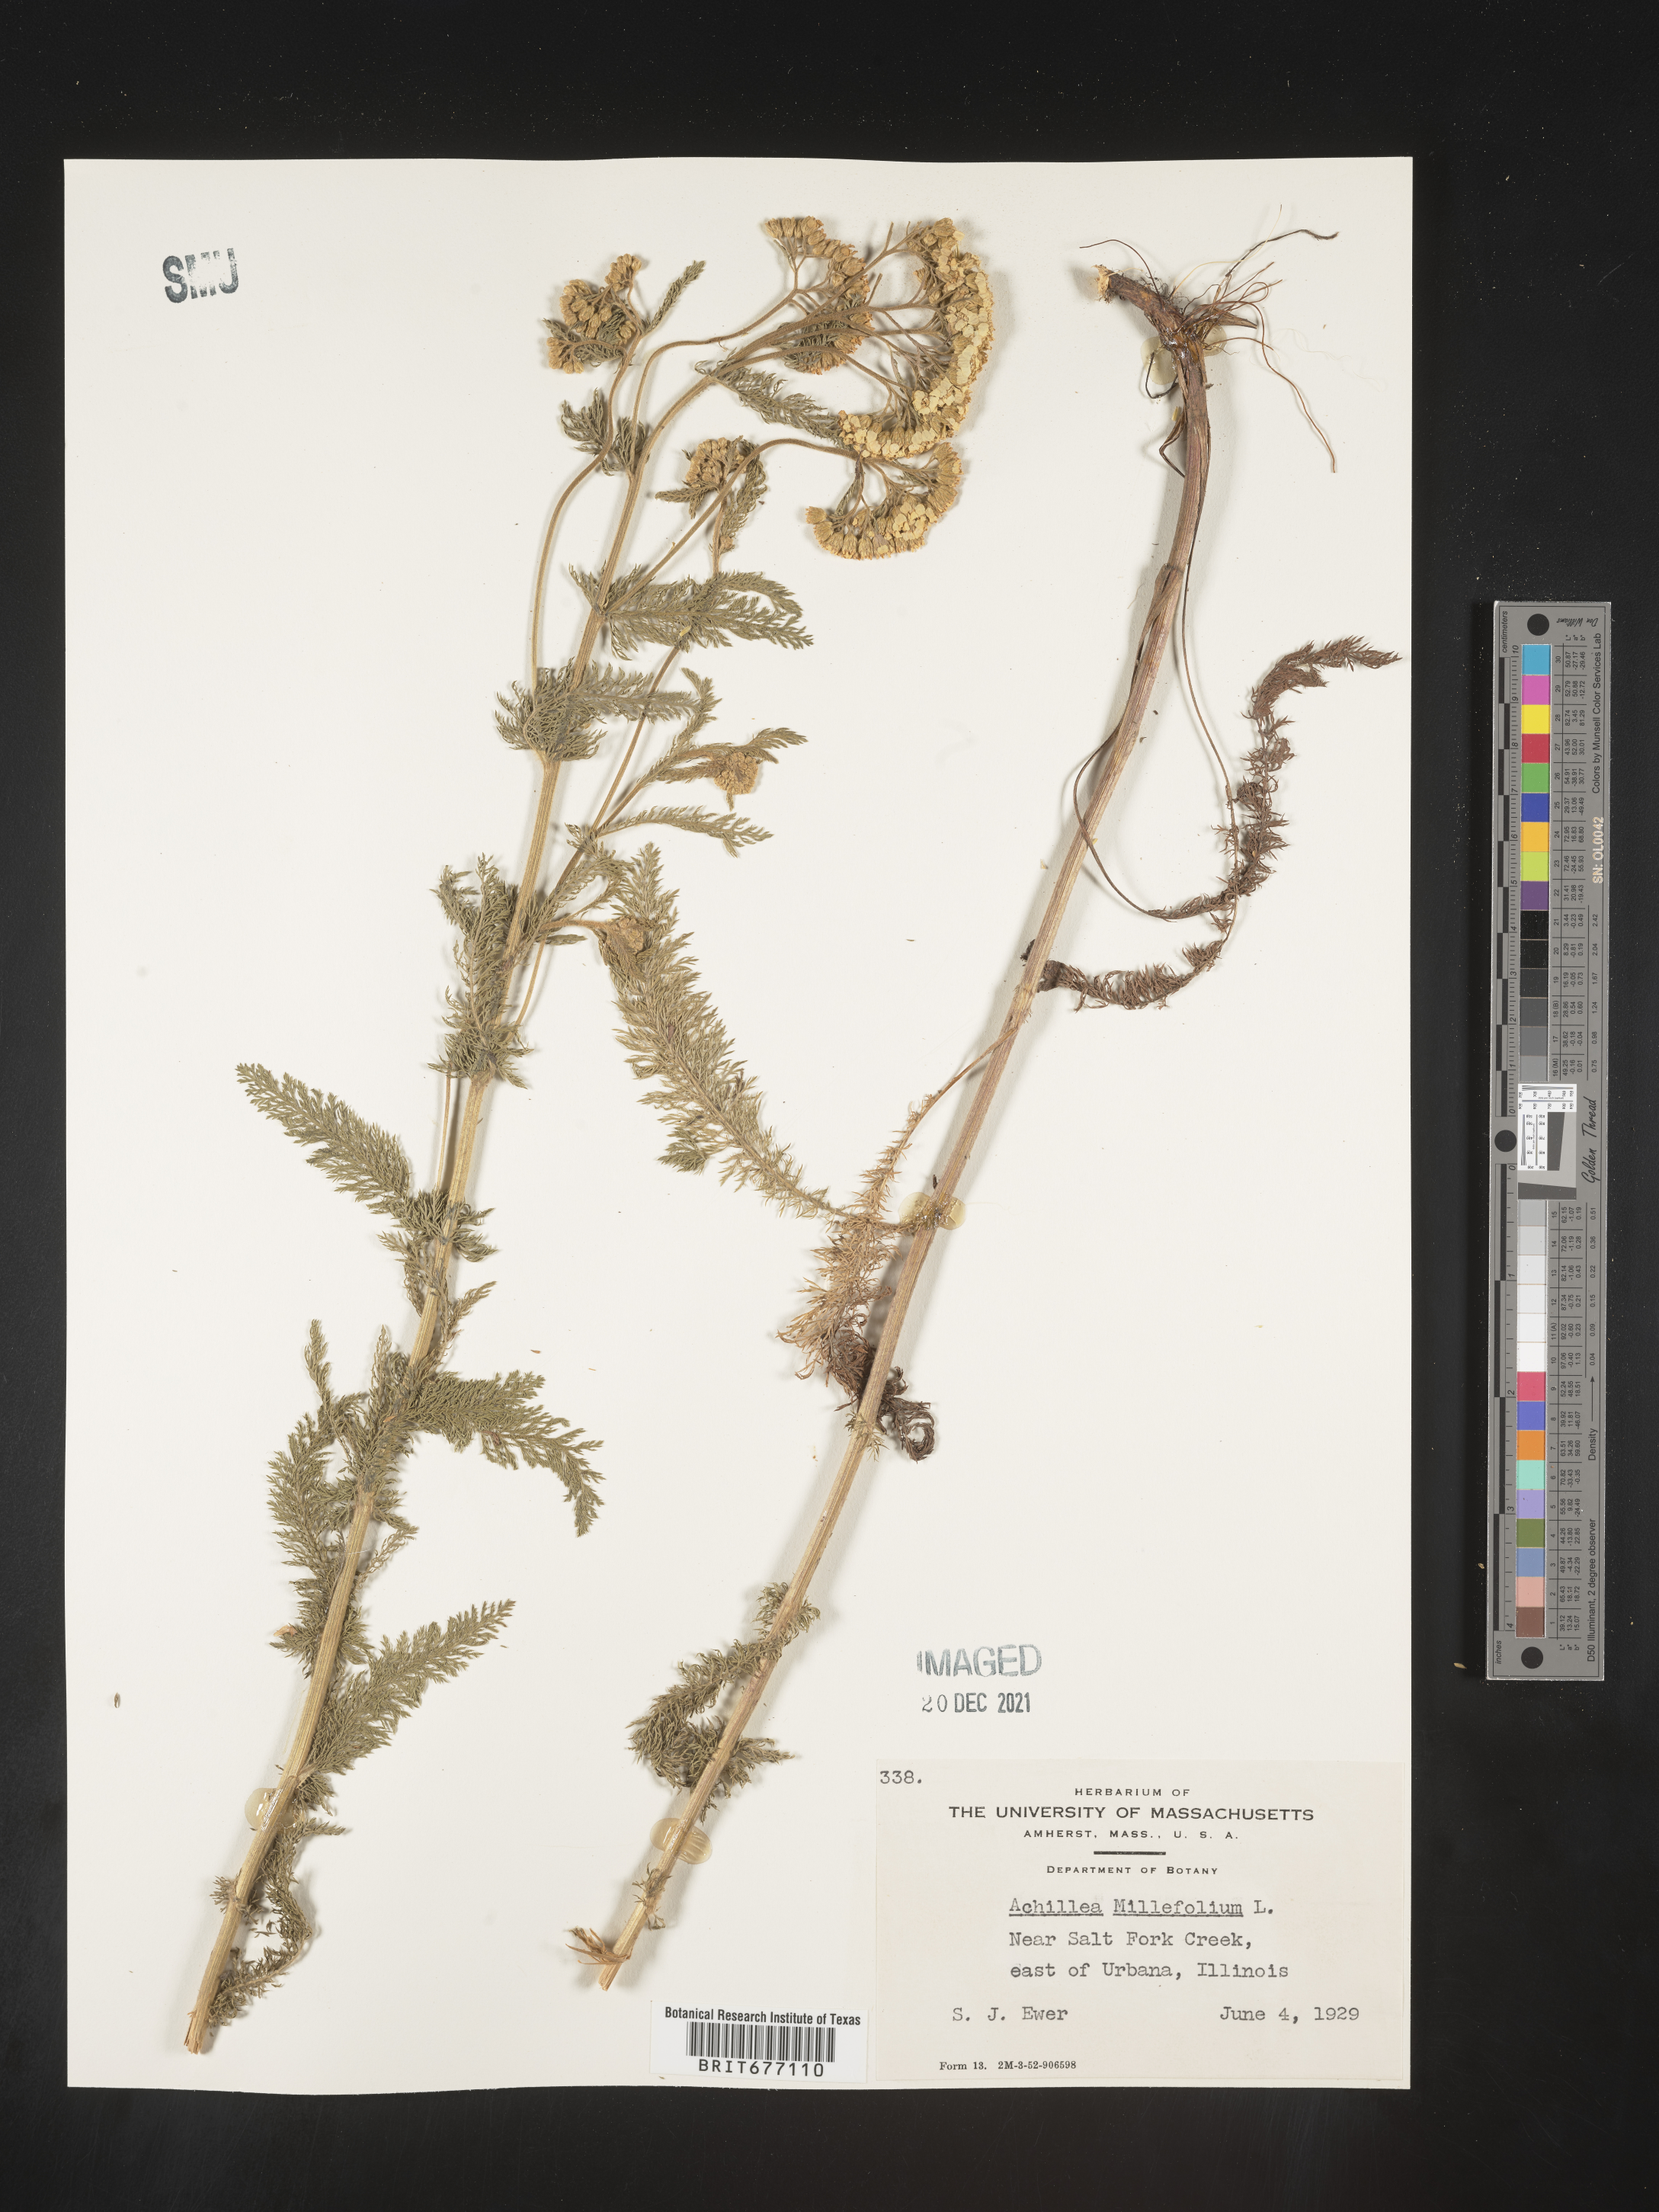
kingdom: Plantae
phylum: Tracheophyta
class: Magnoliopsida
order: Asterales
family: Asteraceae
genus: Achillea
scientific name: Achillea millefolium
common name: Yarrow
